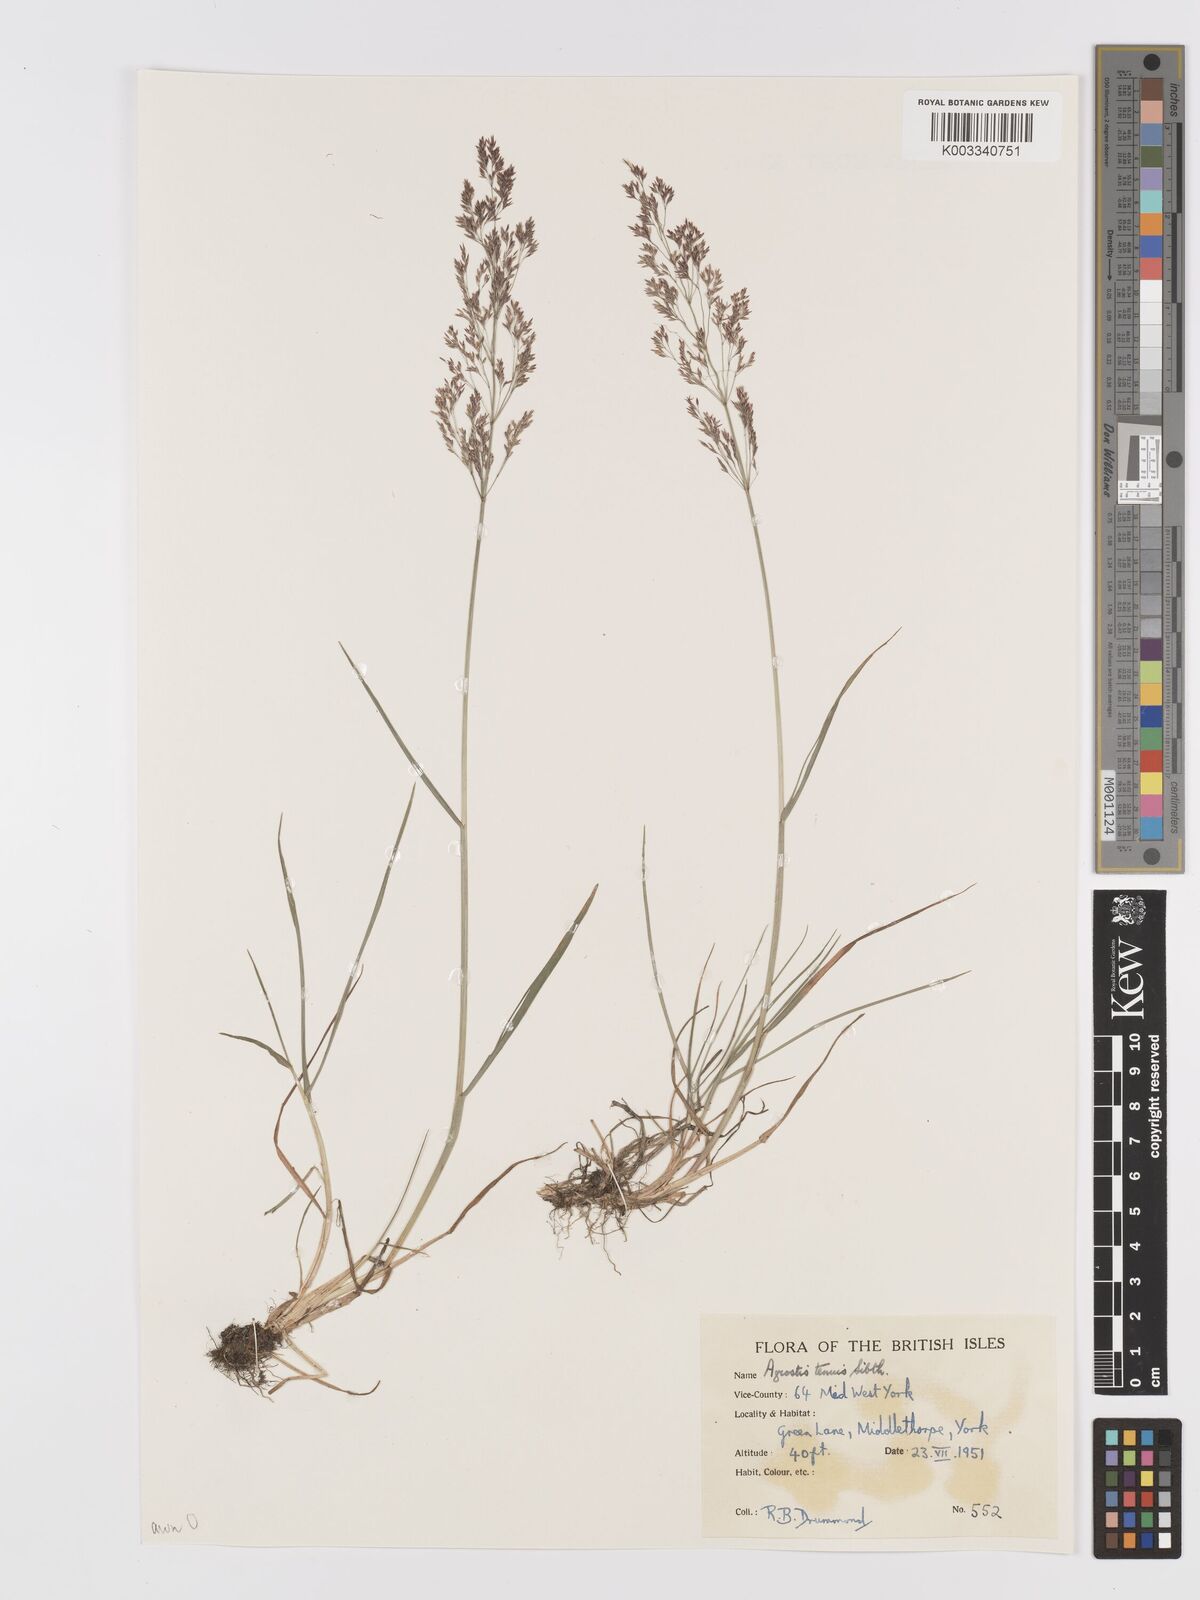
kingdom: Plantae
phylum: Tracheophyta
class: Liliopsida
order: Poales
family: Poaceae
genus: Agrostis
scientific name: Agrostis capillaris
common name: Colonial bentgrass
